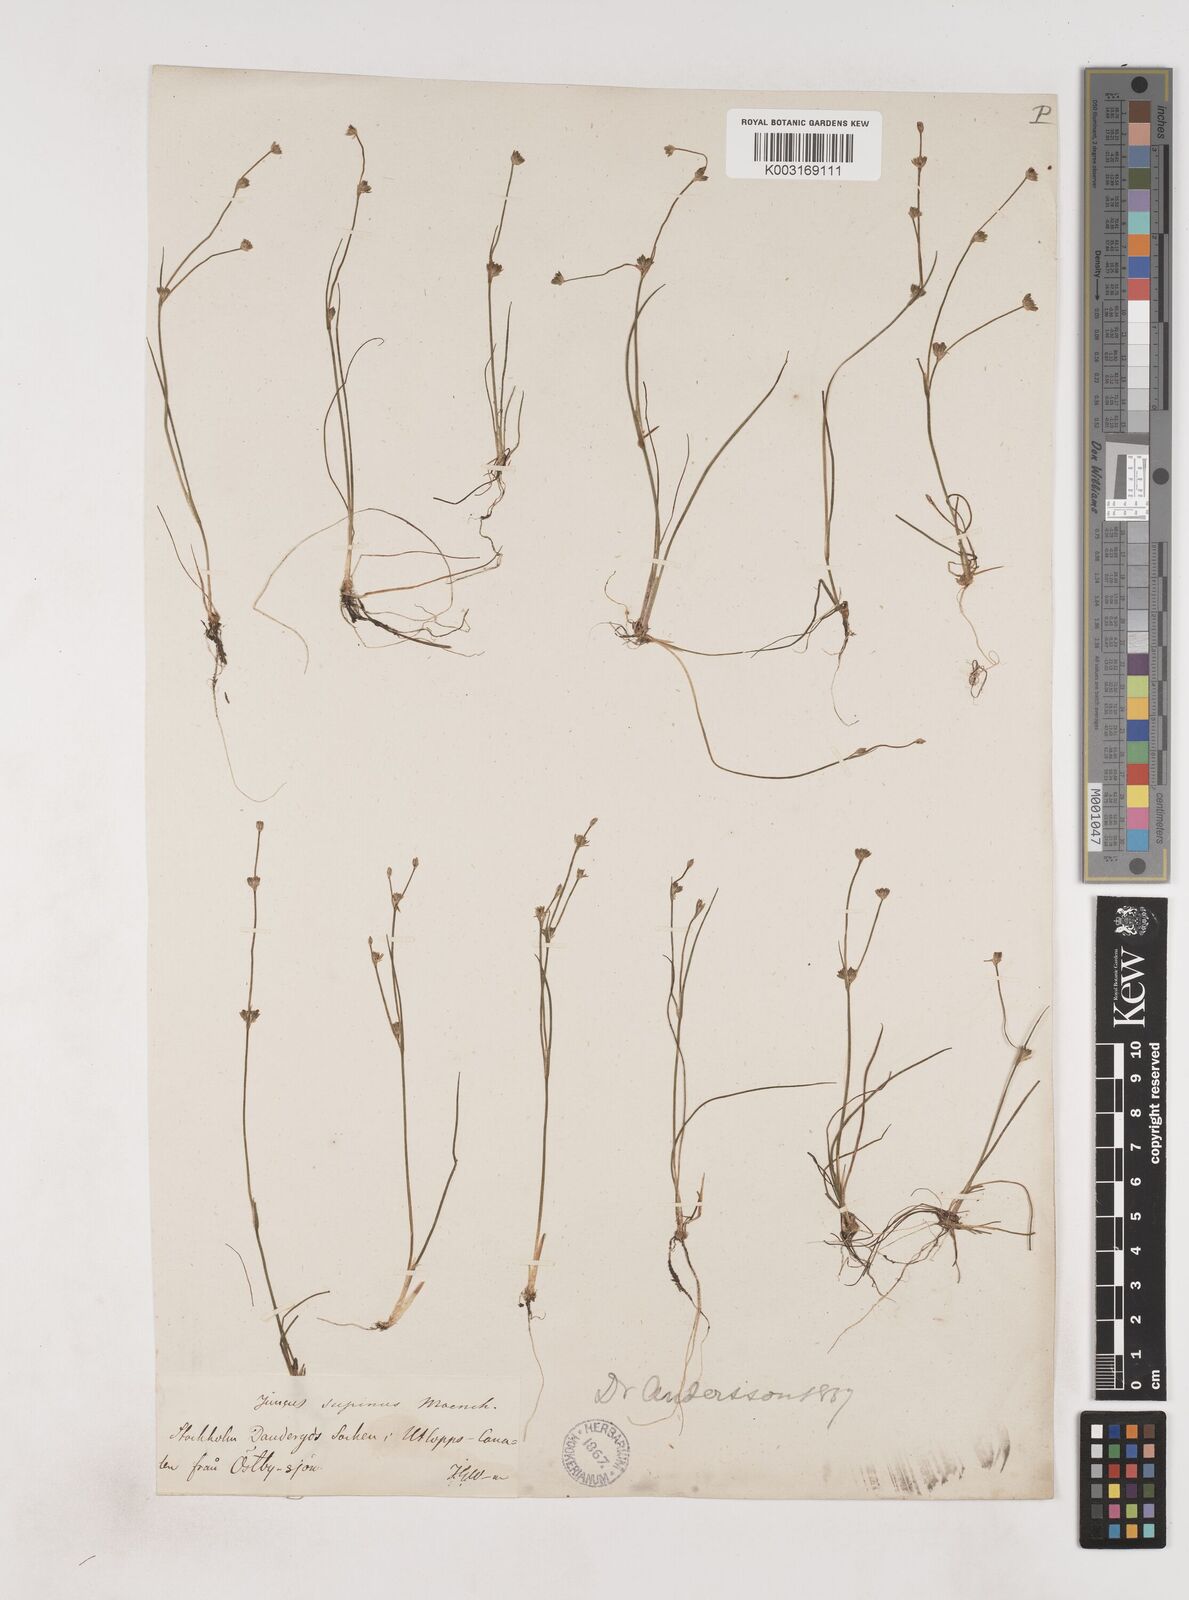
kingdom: Plantae
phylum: Tracheophyta
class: Liliopsida
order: Poales
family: Juncaceae
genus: Juncus
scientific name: Juncus bulbosus
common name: Bulbous rush
